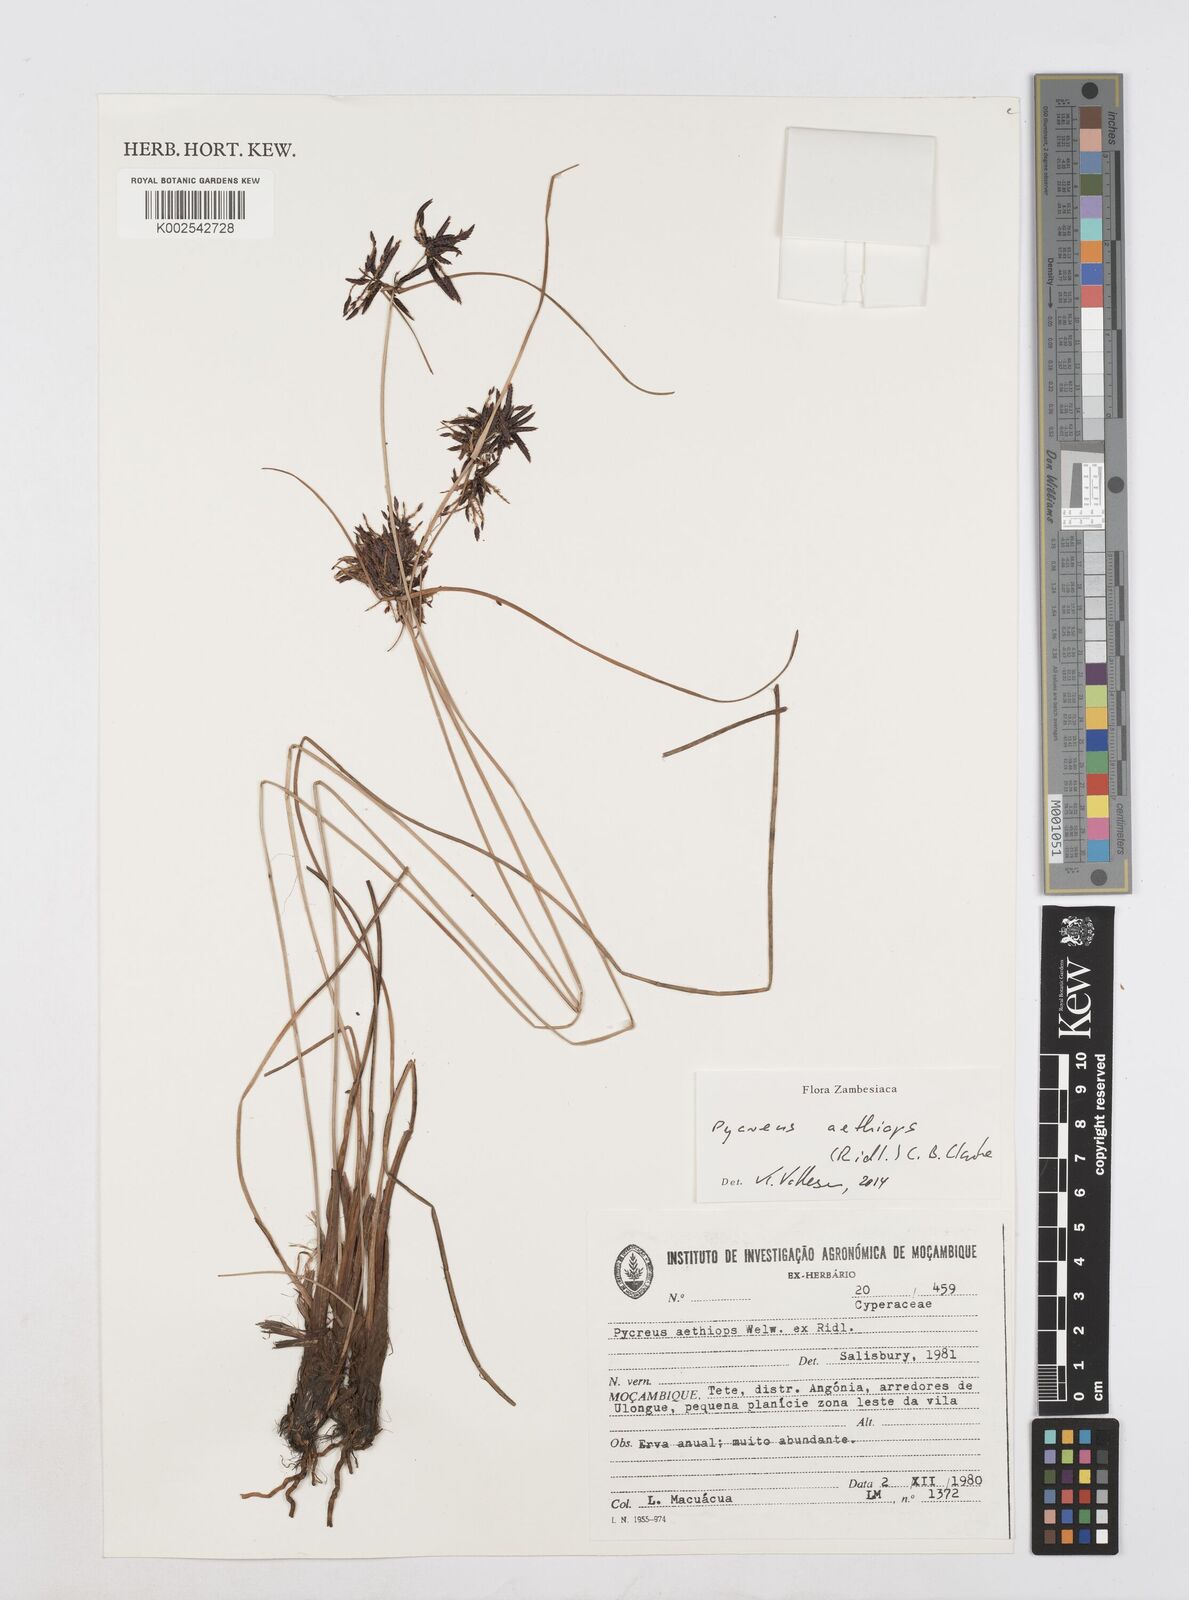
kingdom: Plantae
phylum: Tracheophyta
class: Liliopsida
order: Poales
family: Cyperaceae
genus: Cyperus
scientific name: Cyperus aethiops
